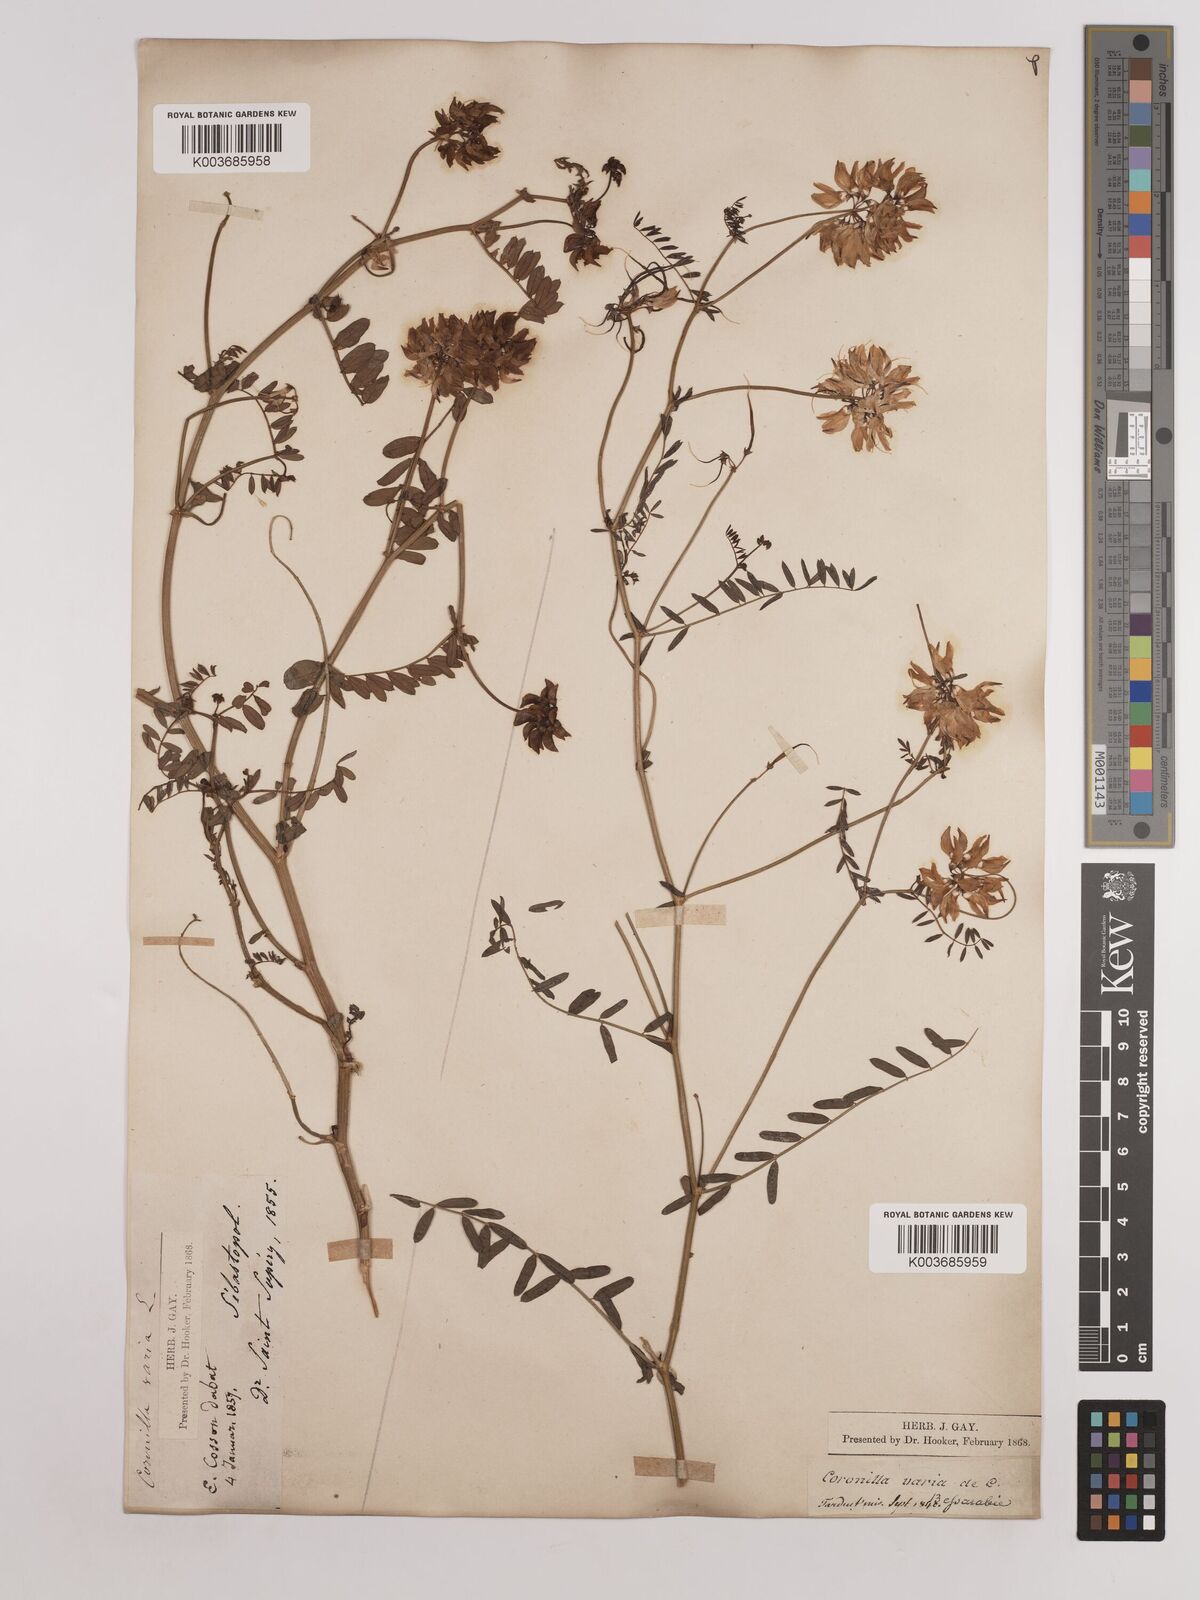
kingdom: Plantae
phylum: Tracheophyta
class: Magnoliopsida
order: Fabales
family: Fabaceae
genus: Coronilla
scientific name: Coronilla varia
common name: Crownvetch
